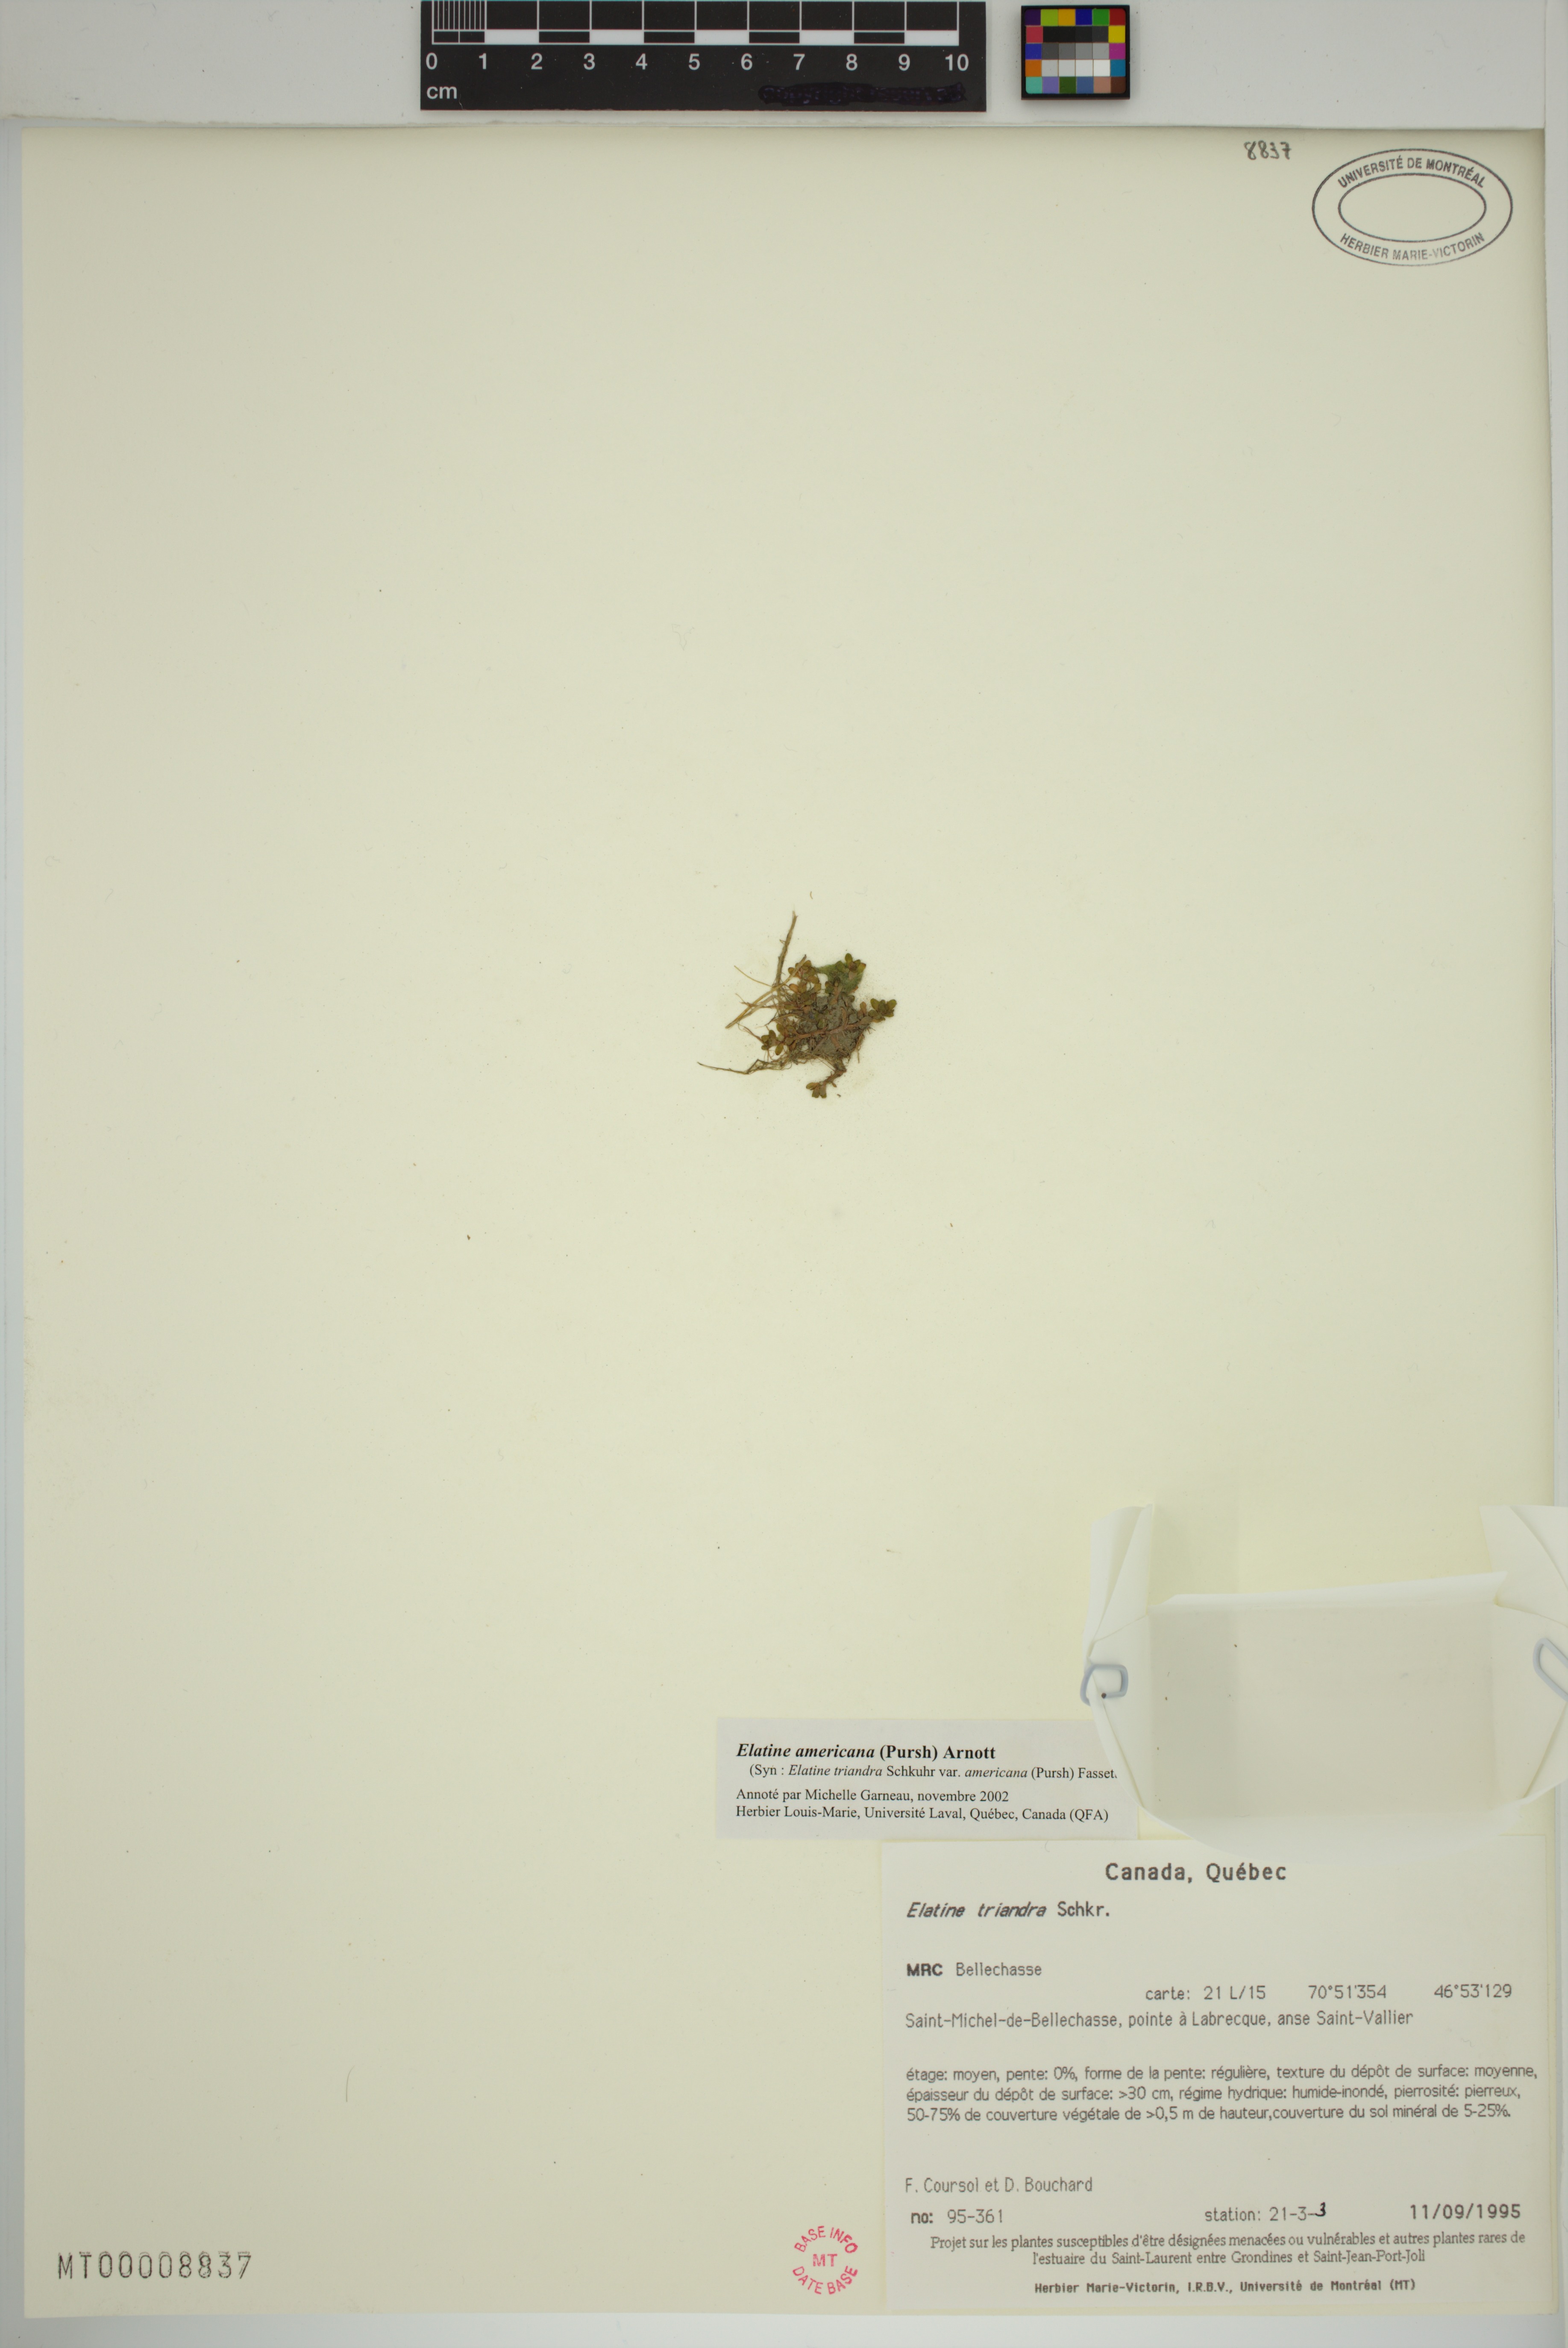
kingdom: Plantae
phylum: Tracheophyta
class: Magnoliopsida
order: Malpighiales
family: Elatinaceae
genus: Elatine
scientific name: Elatine americana
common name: American waterwort
